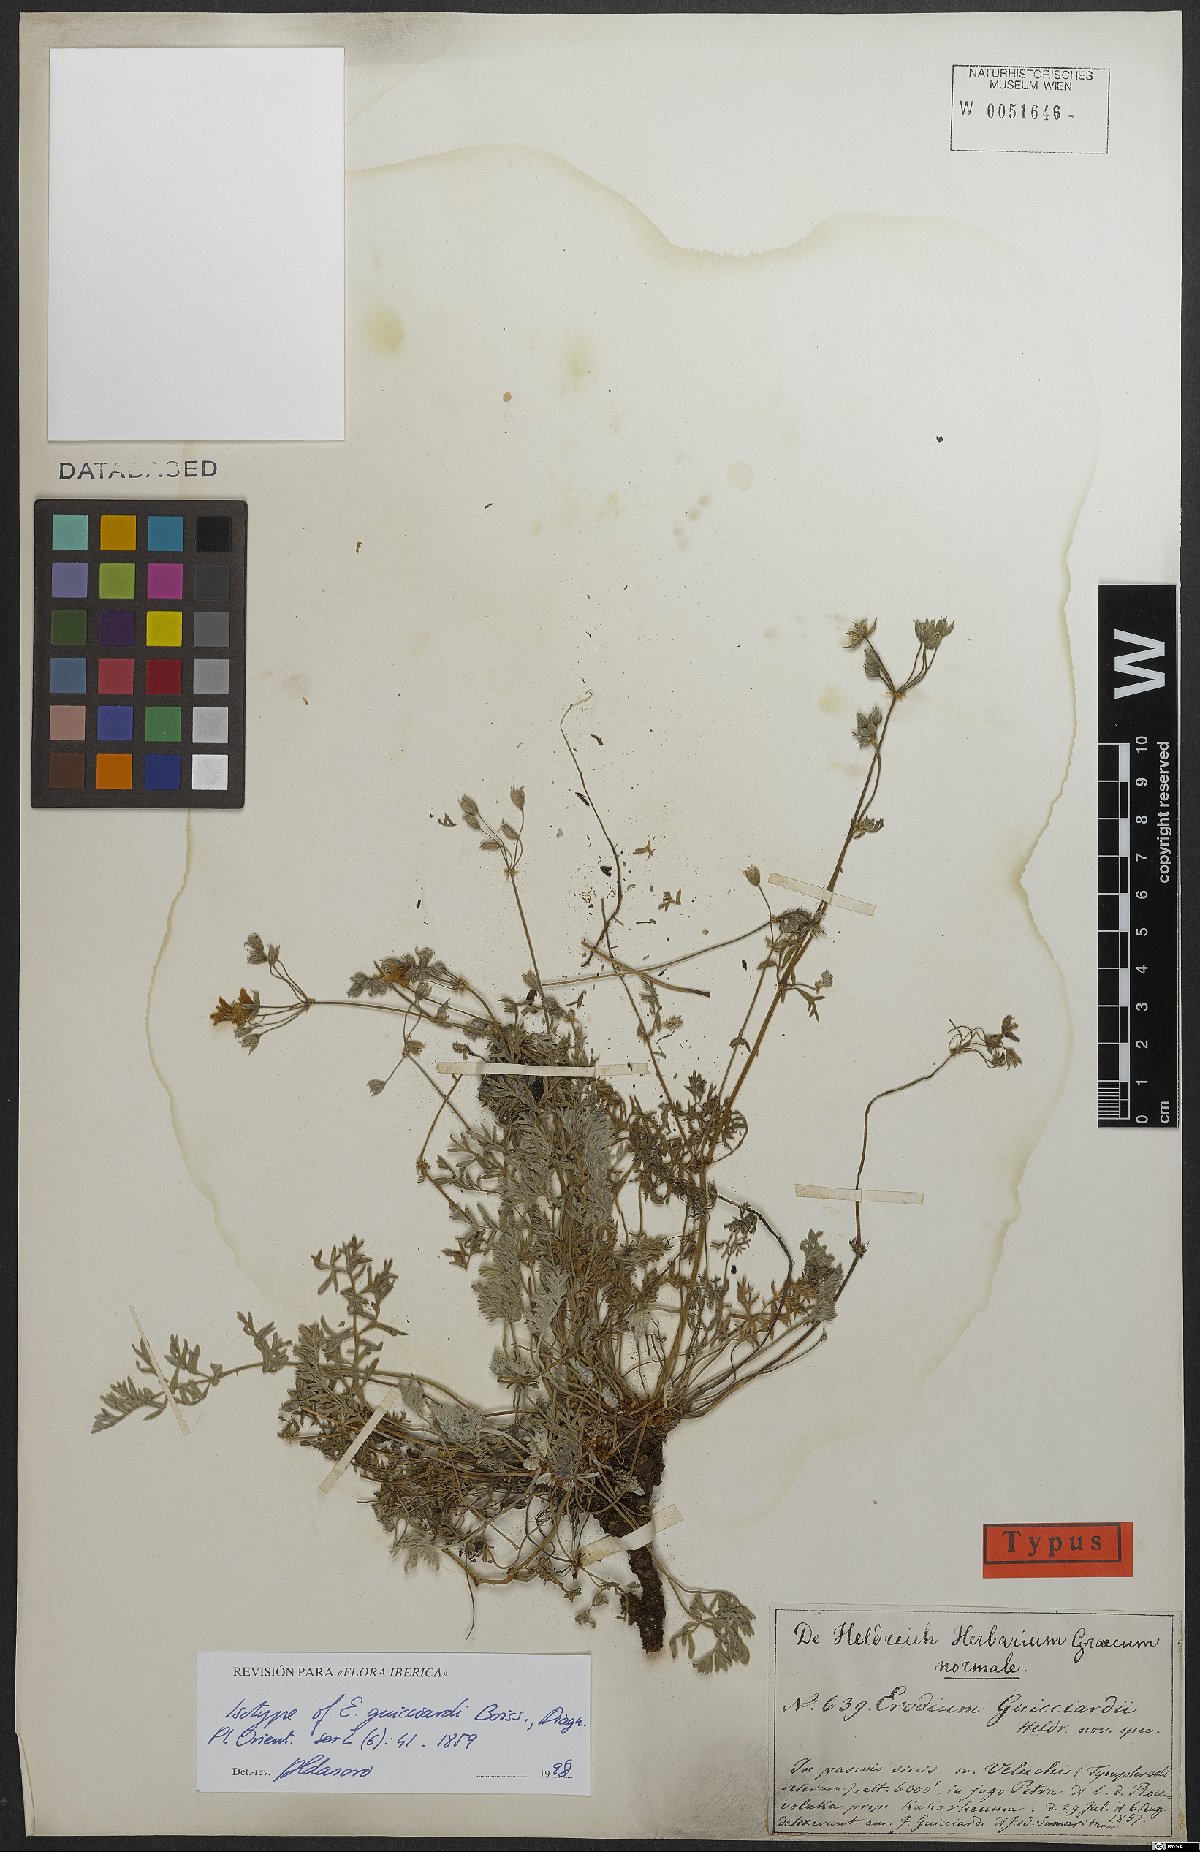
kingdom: Plantae
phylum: Tracheophyta
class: Magnoliopsida
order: Geraniales
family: Geraniaceae
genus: Erodium
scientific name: Erodium absinthoides
